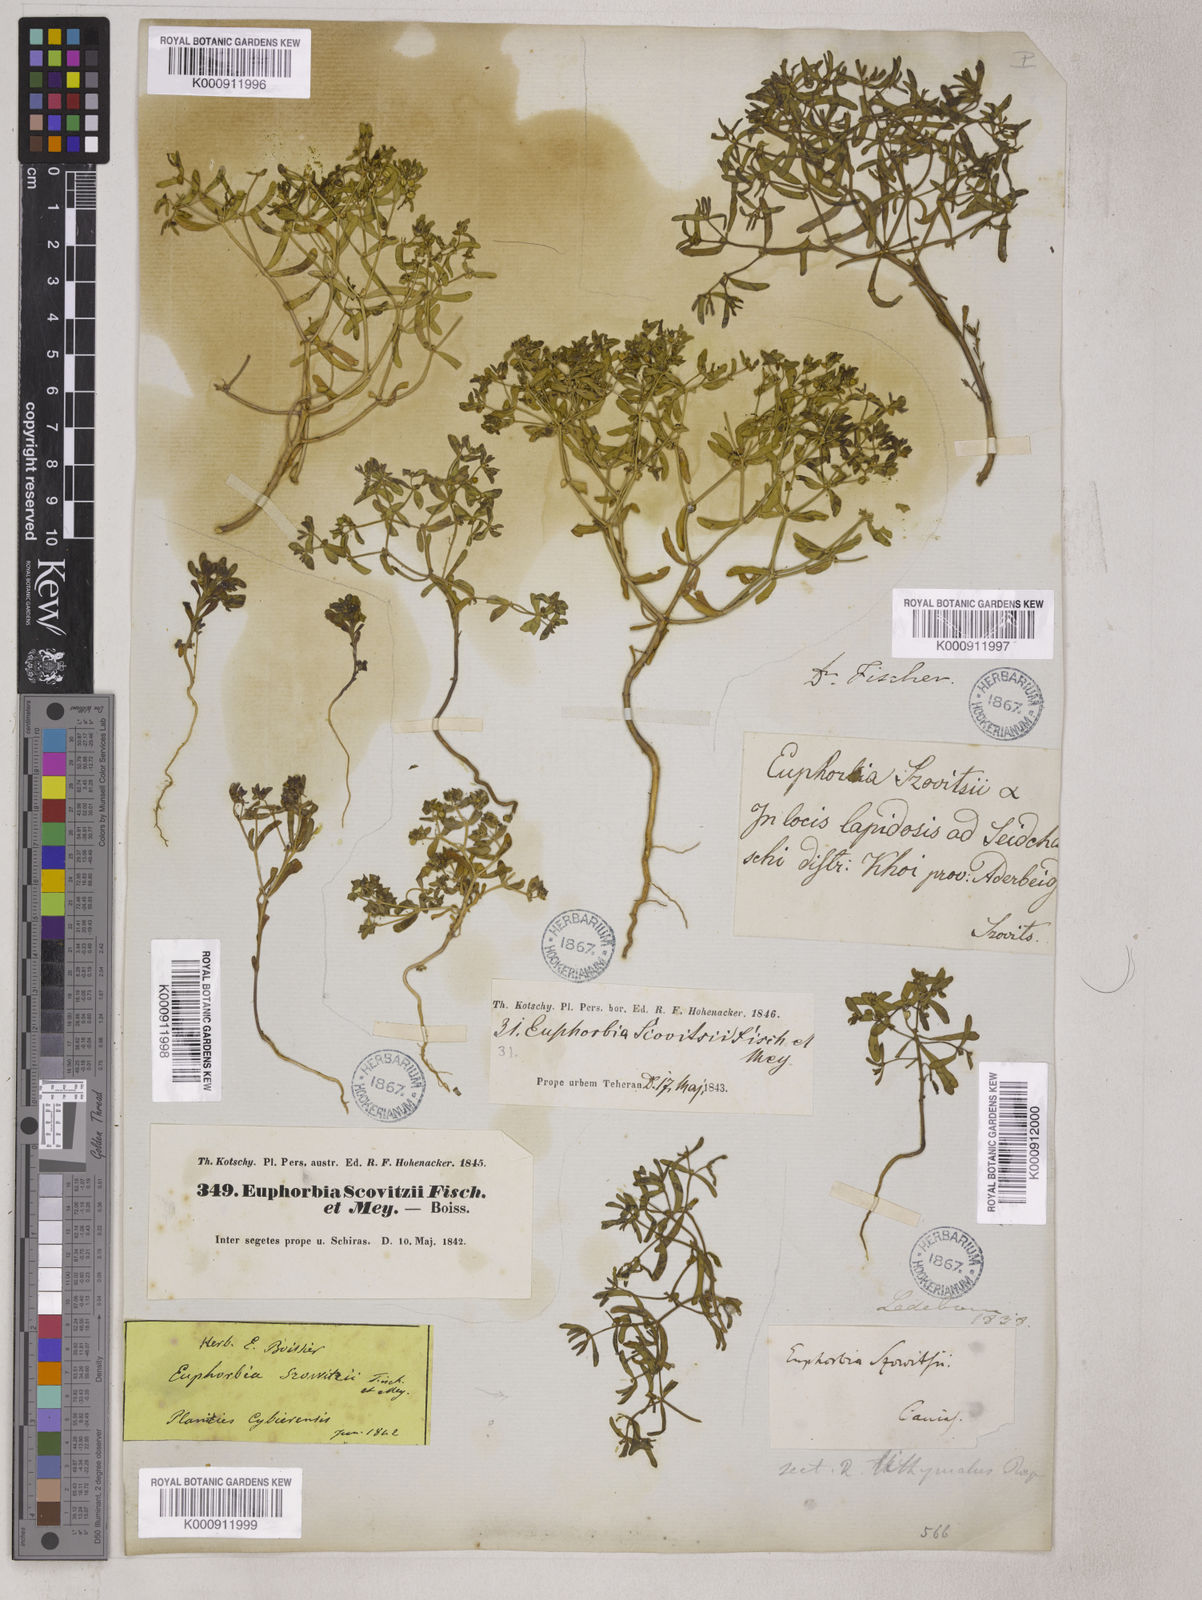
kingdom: Plantae
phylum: Tracheophyta
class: Magnoliopsida
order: Malpighiales
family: Euphorbiaceae
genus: Euphorbia
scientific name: Euphorbia szovitsii
